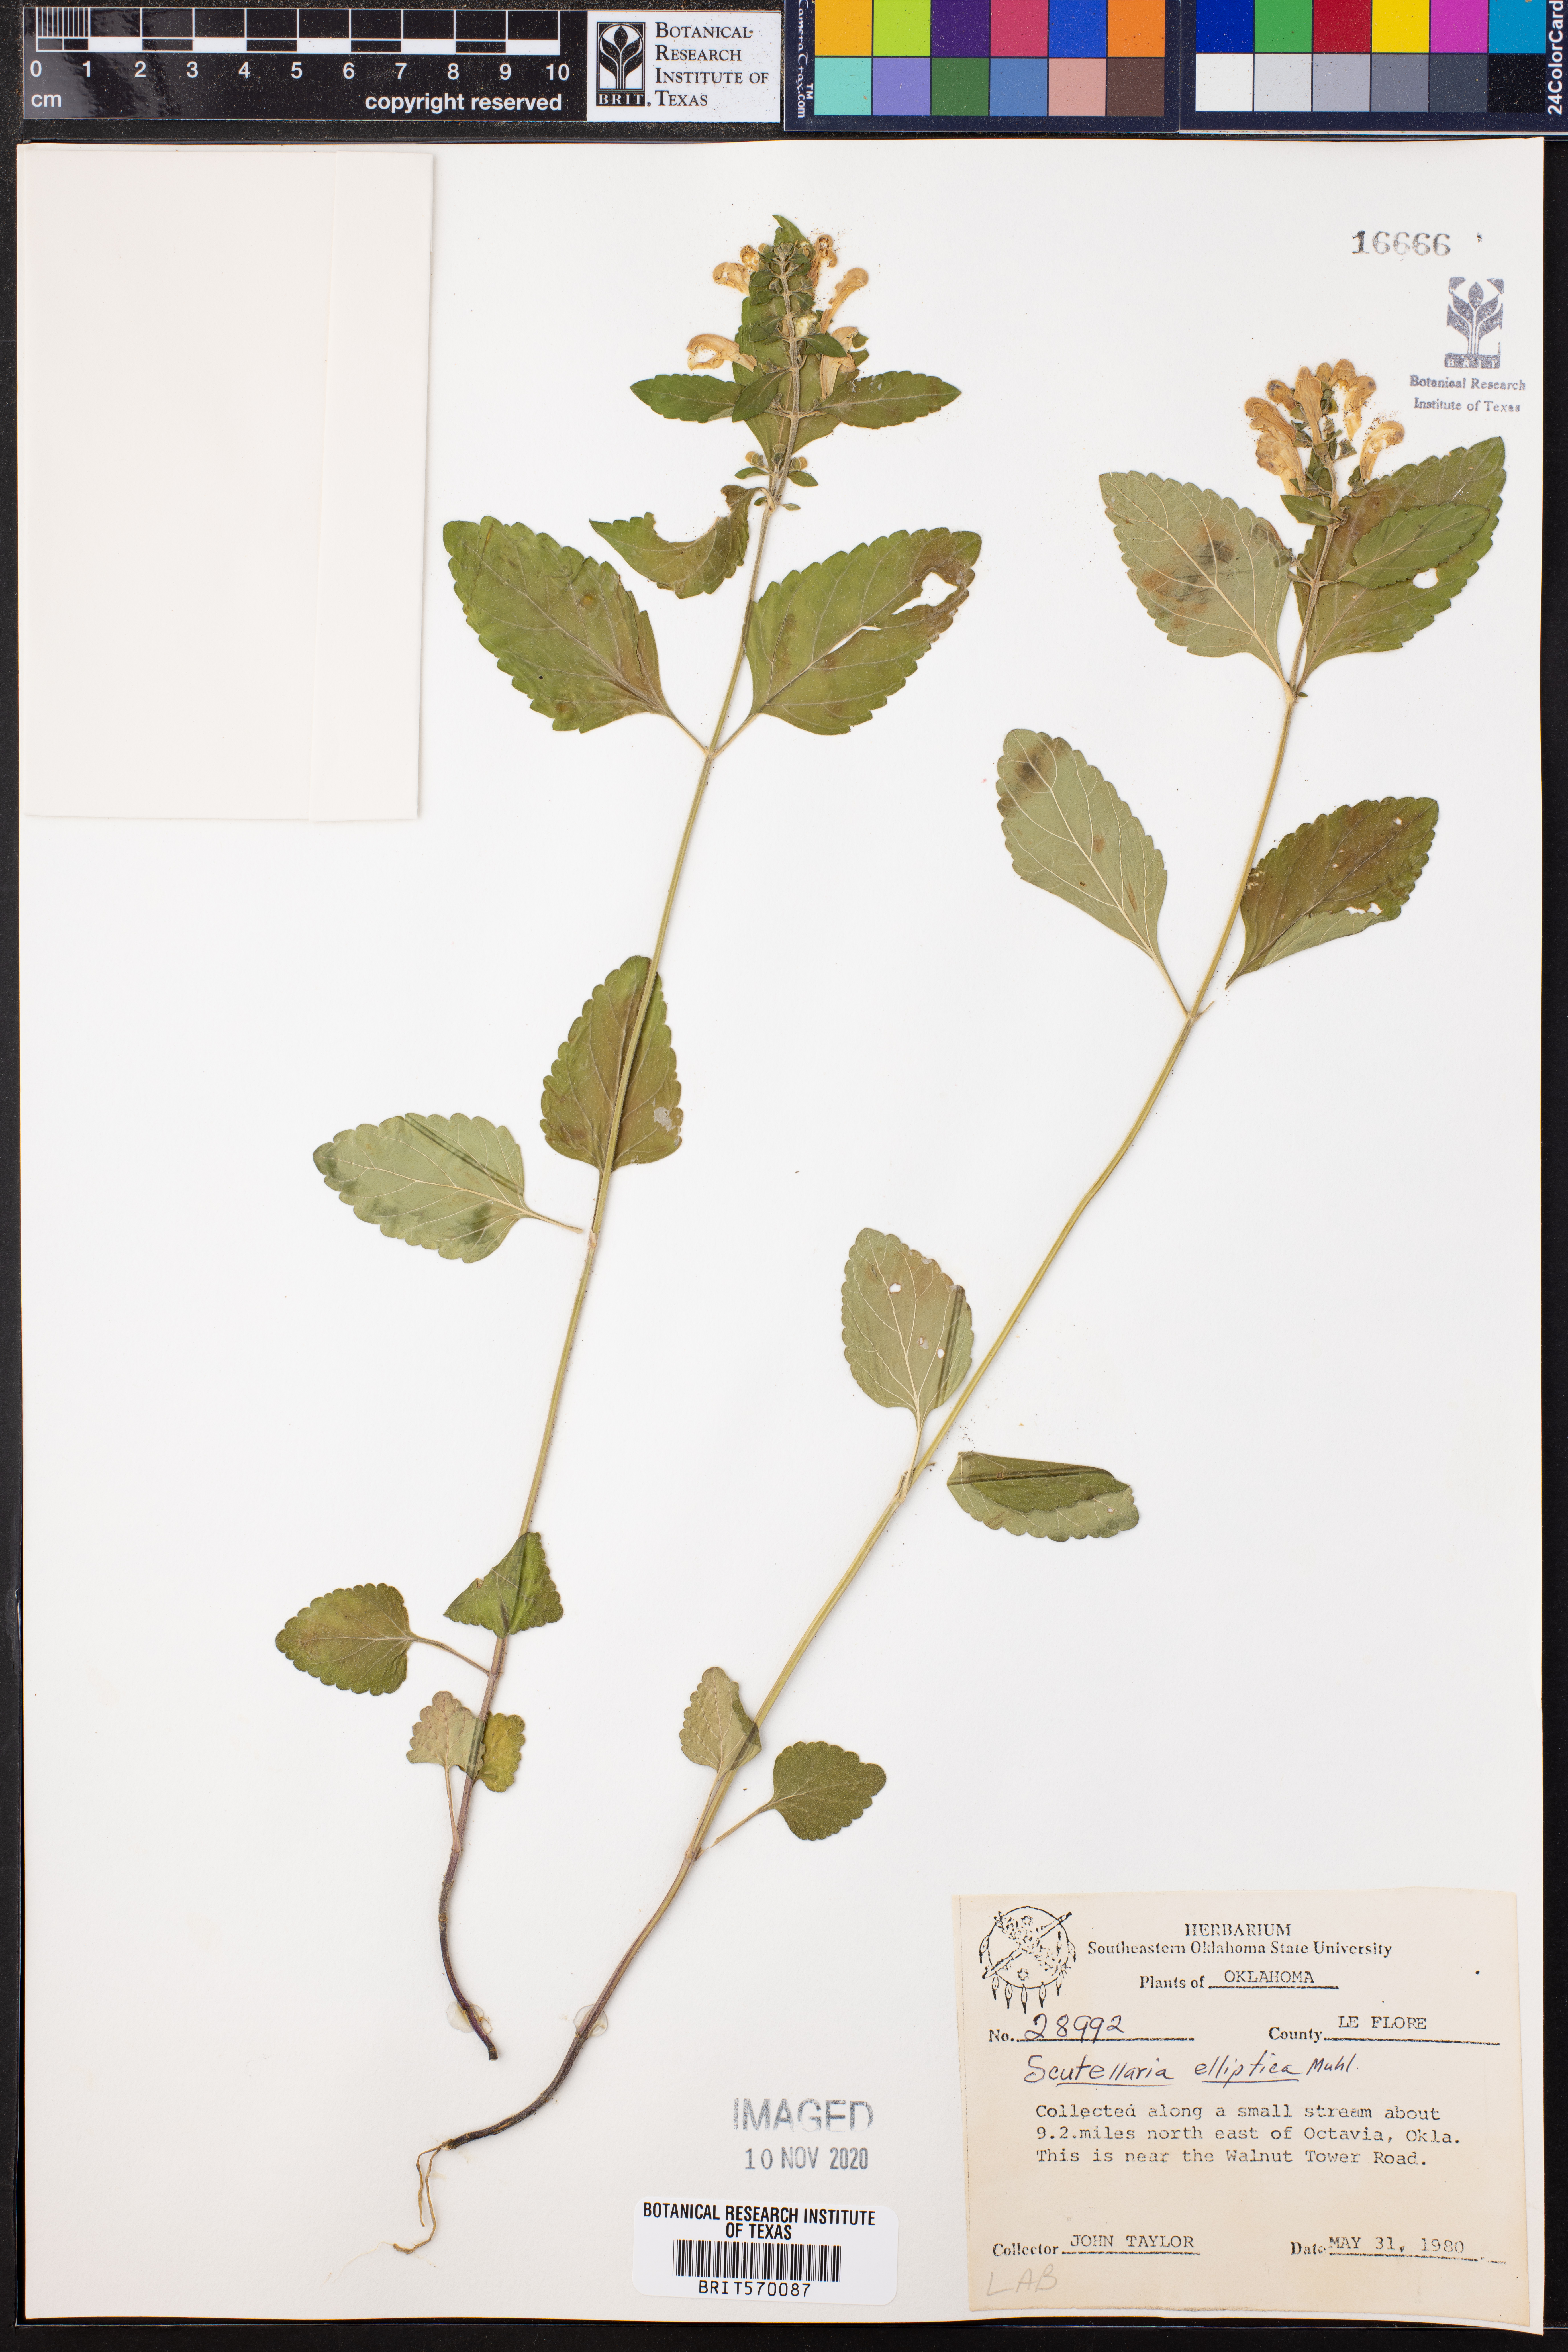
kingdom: Plantae
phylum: Tracheophyta
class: Magnoliopsida
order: Lamiales
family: Lamiaceae
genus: Scutellaria
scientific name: Scutellaria elliptica
